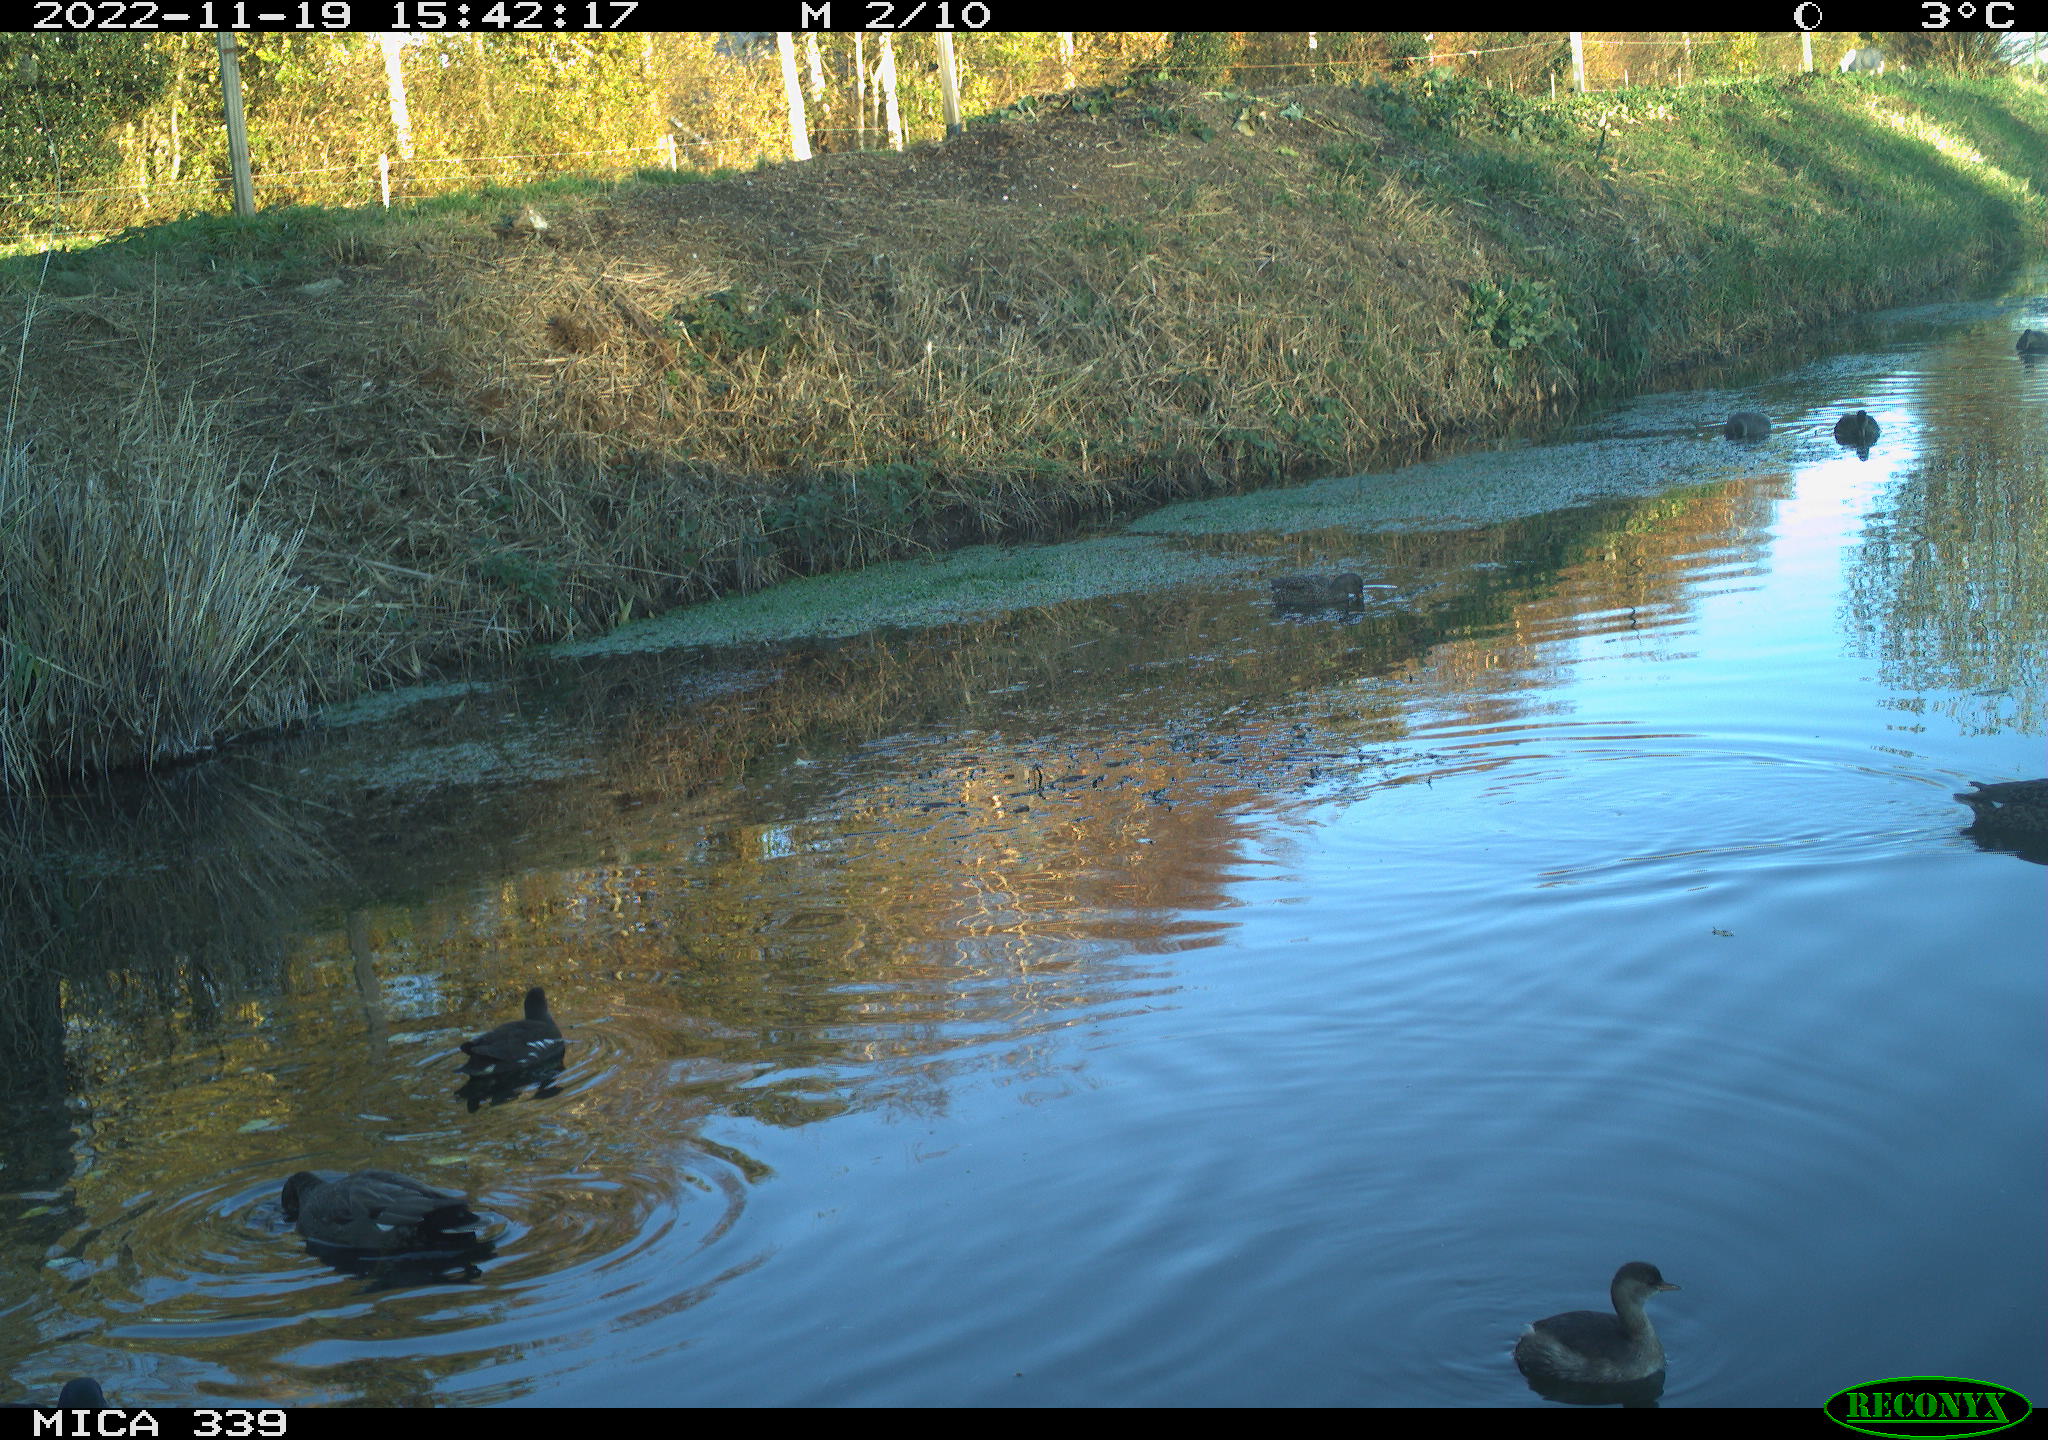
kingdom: Animalia
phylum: Chordata
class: Aves
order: Anseriformes
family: Anatidae
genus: Mareca
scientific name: Mareca strepera
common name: Gadwall
